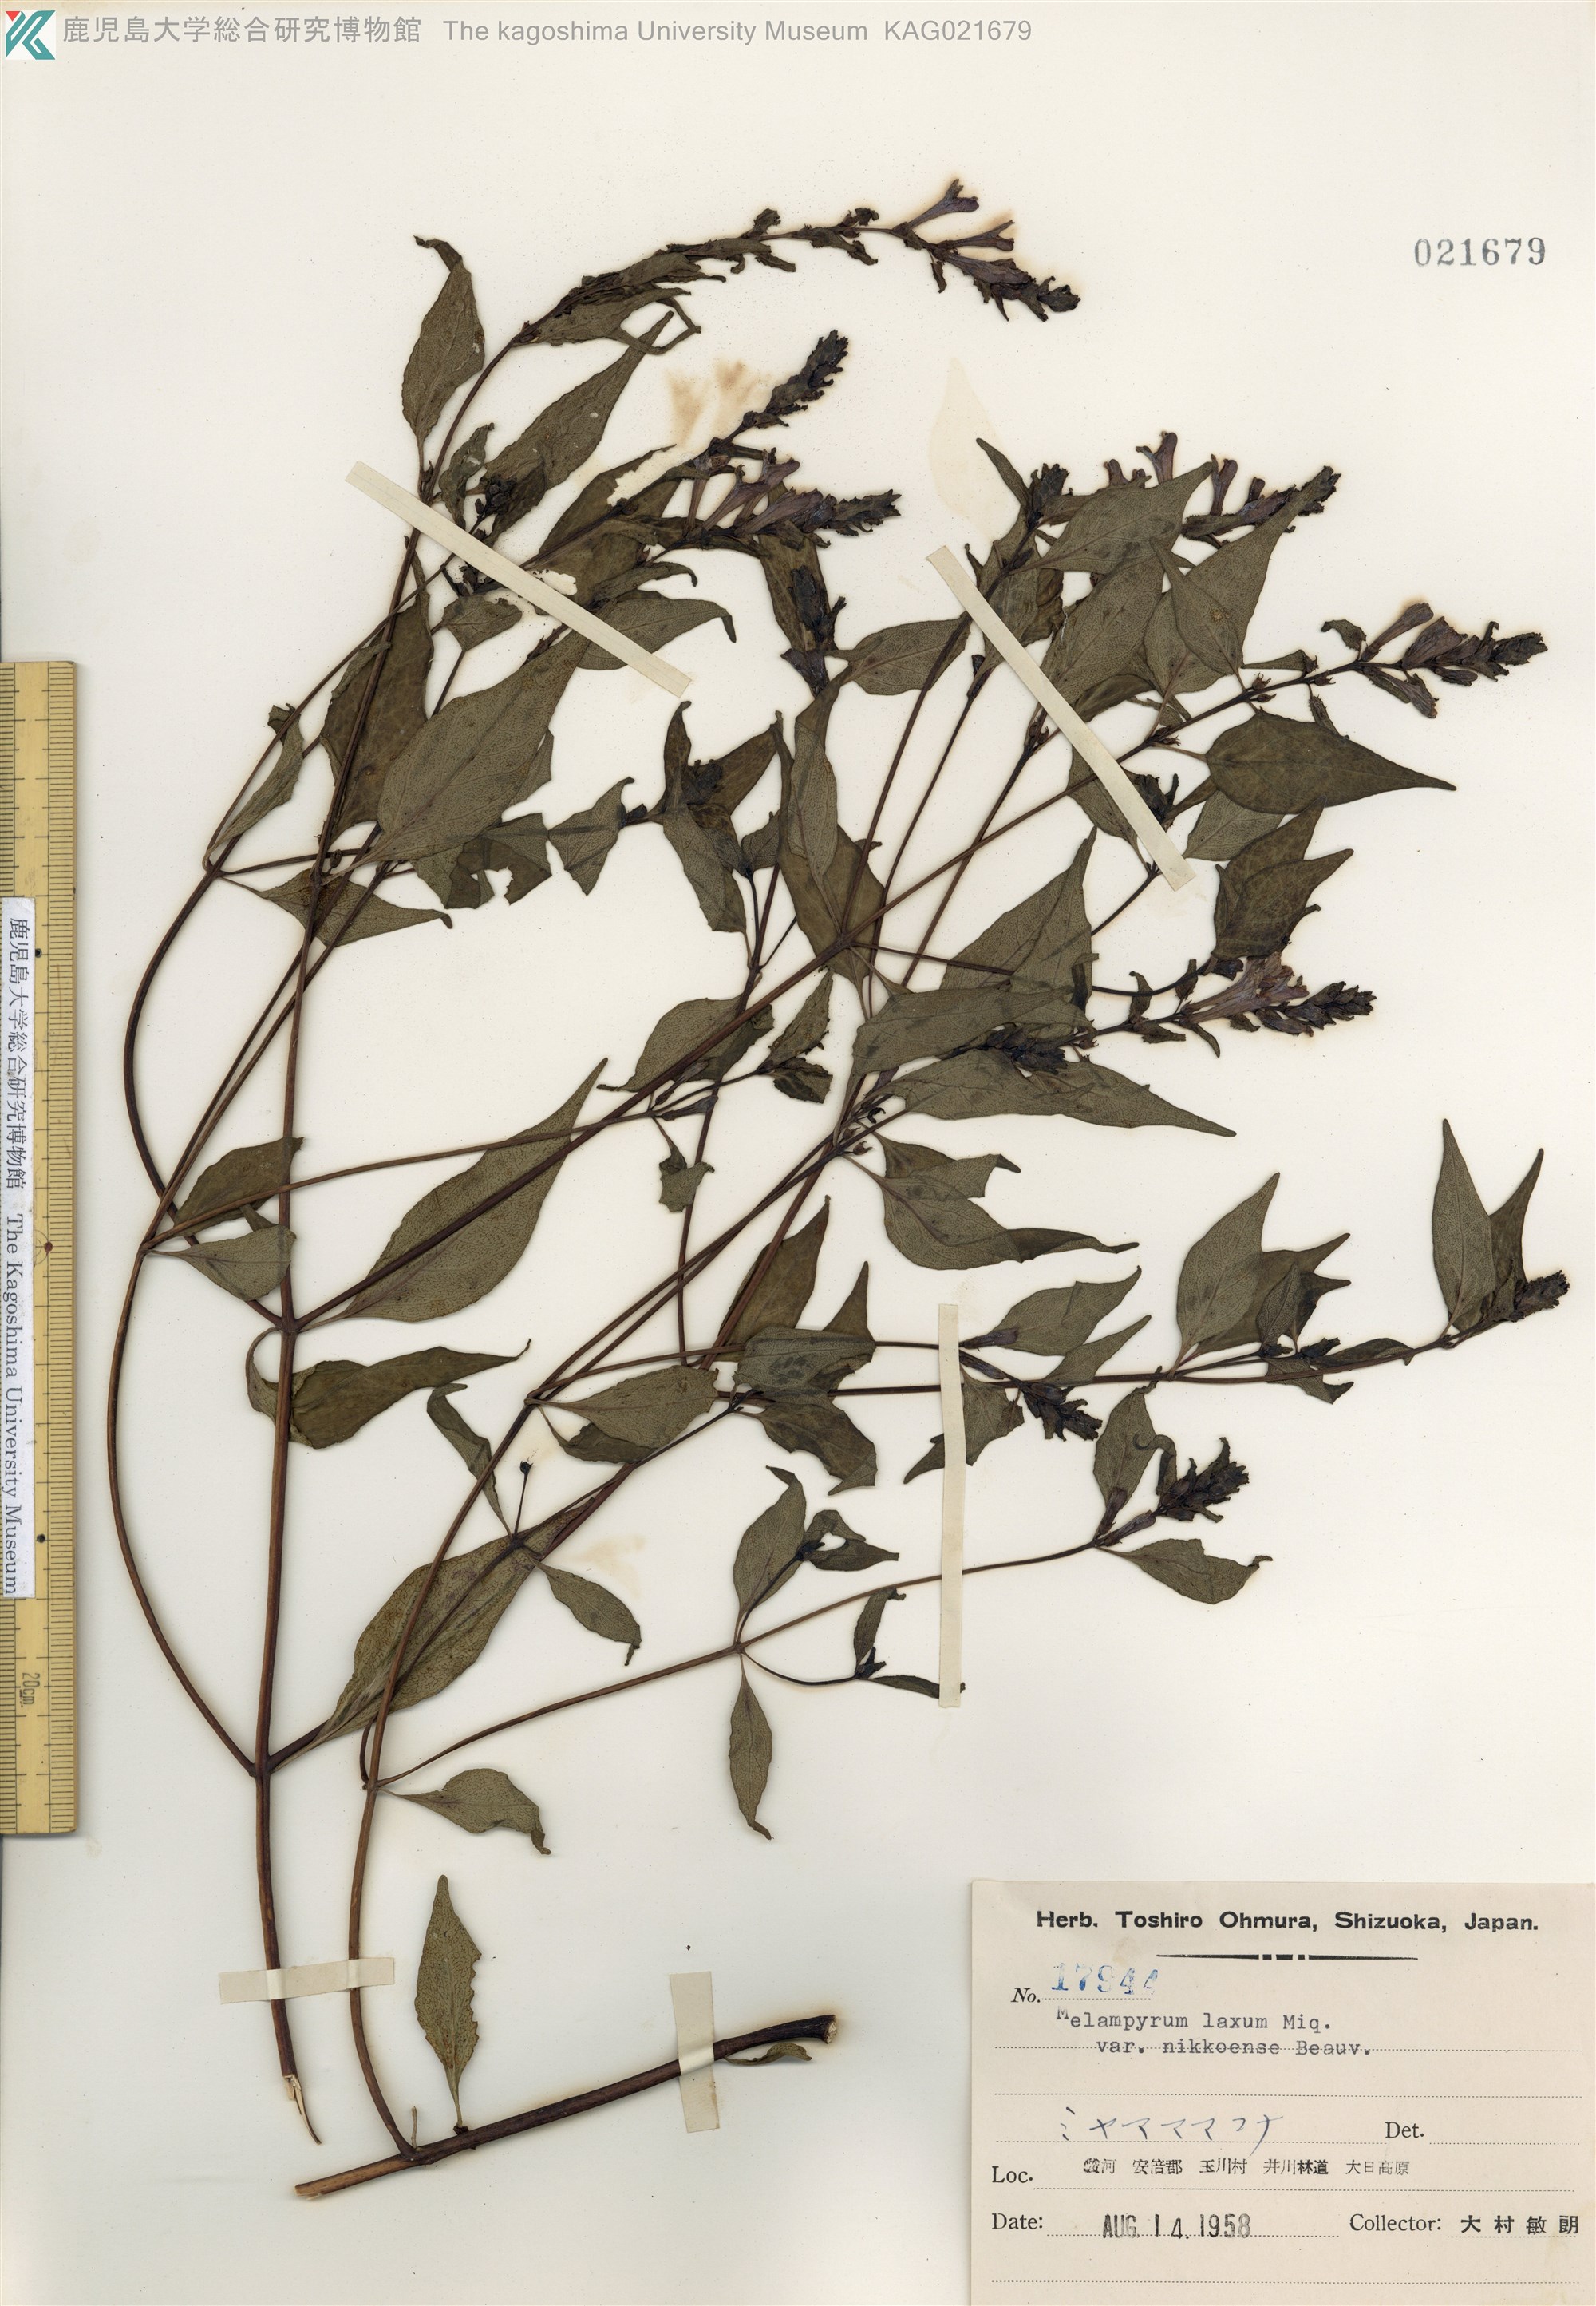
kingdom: Plantae
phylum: Tracheophyta
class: Magnoliopsida
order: Lamiales
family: Orobanchaceae
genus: Melampyrum
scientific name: Melampyrum laxum
